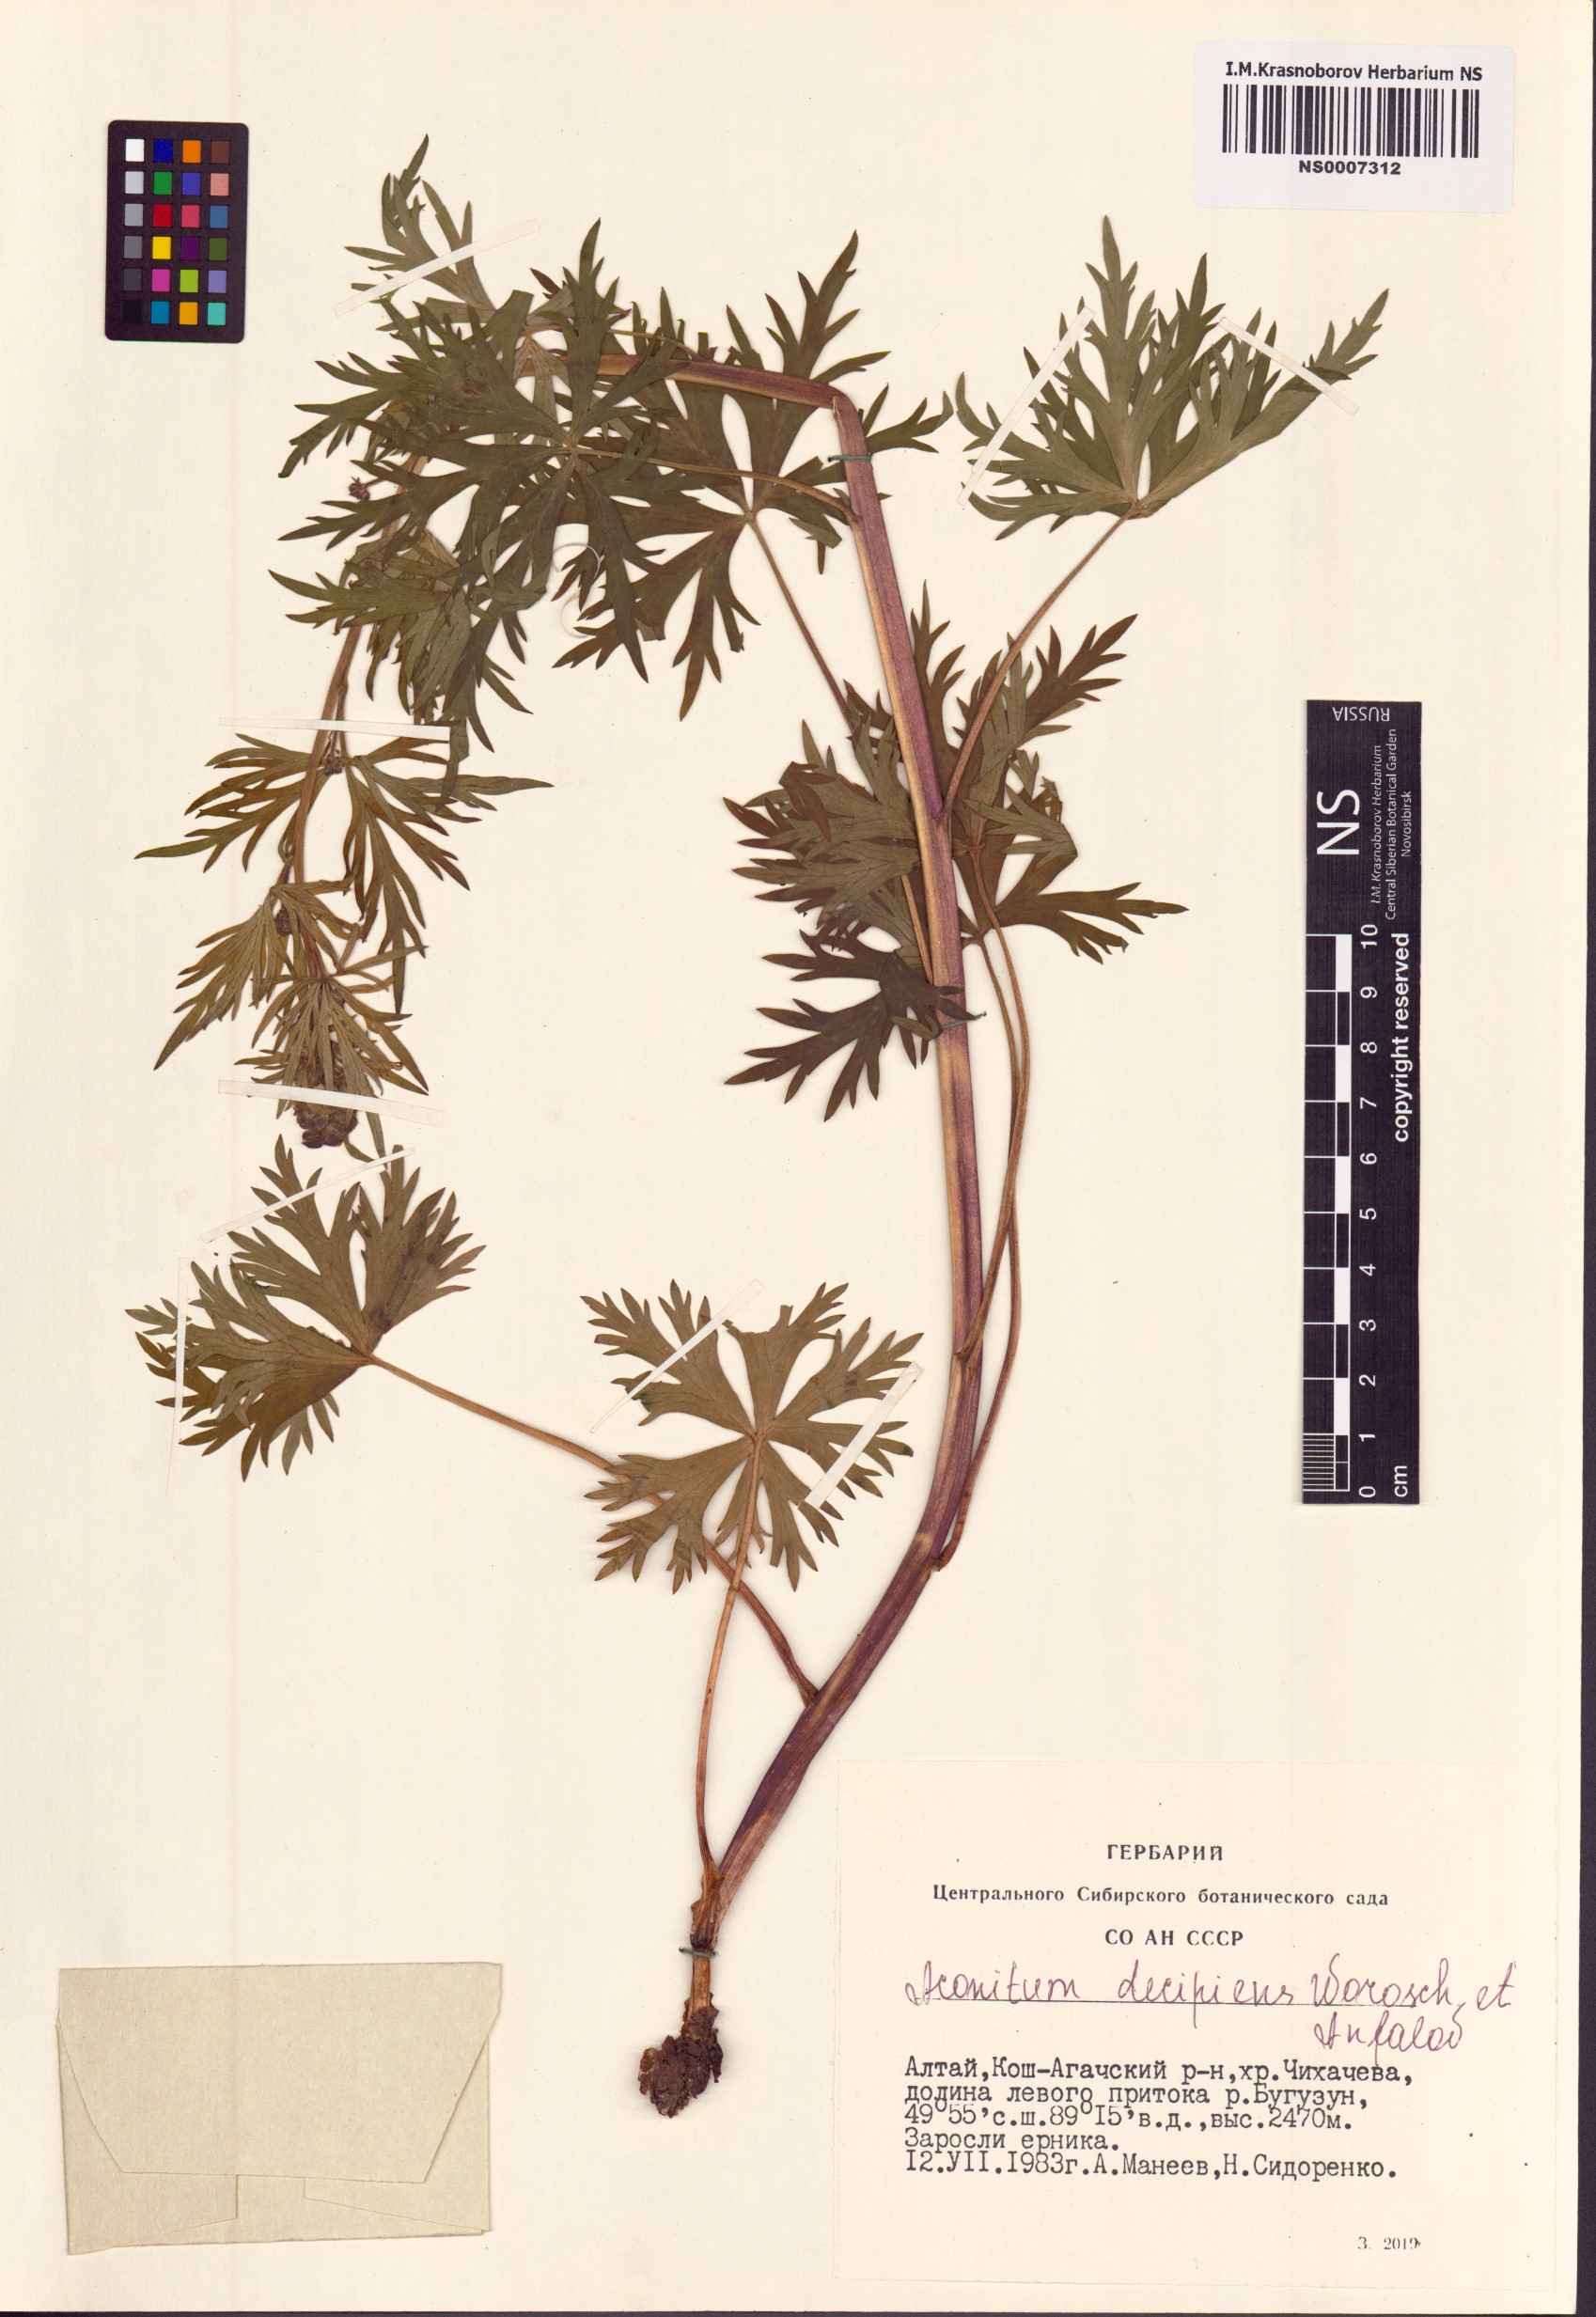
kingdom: Plantae
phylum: Tracheophyta
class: Magnoliopsida
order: Ranunculales
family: Ranunculaceae
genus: Aconitum
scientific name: Aconitum decipiens
